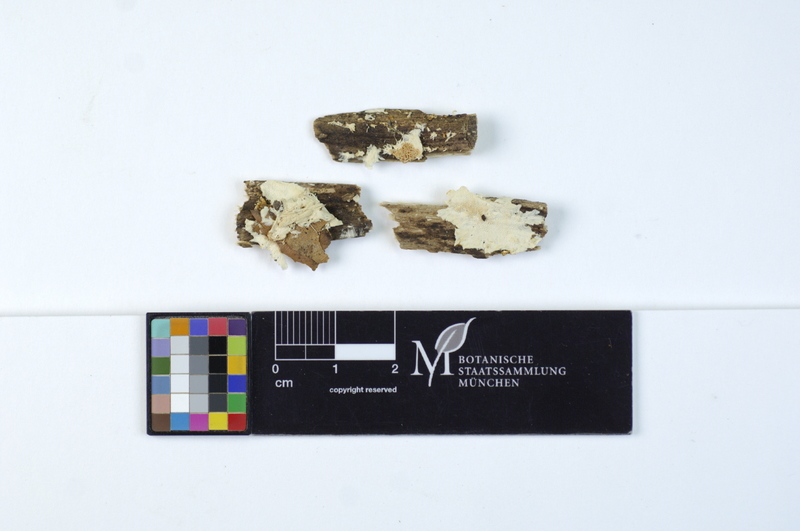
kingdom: Plantae
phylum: Tracheophyta
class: Magnoliopsida
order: Rosales
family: Rosaceae
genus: Crataegus
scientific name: Crataegus
